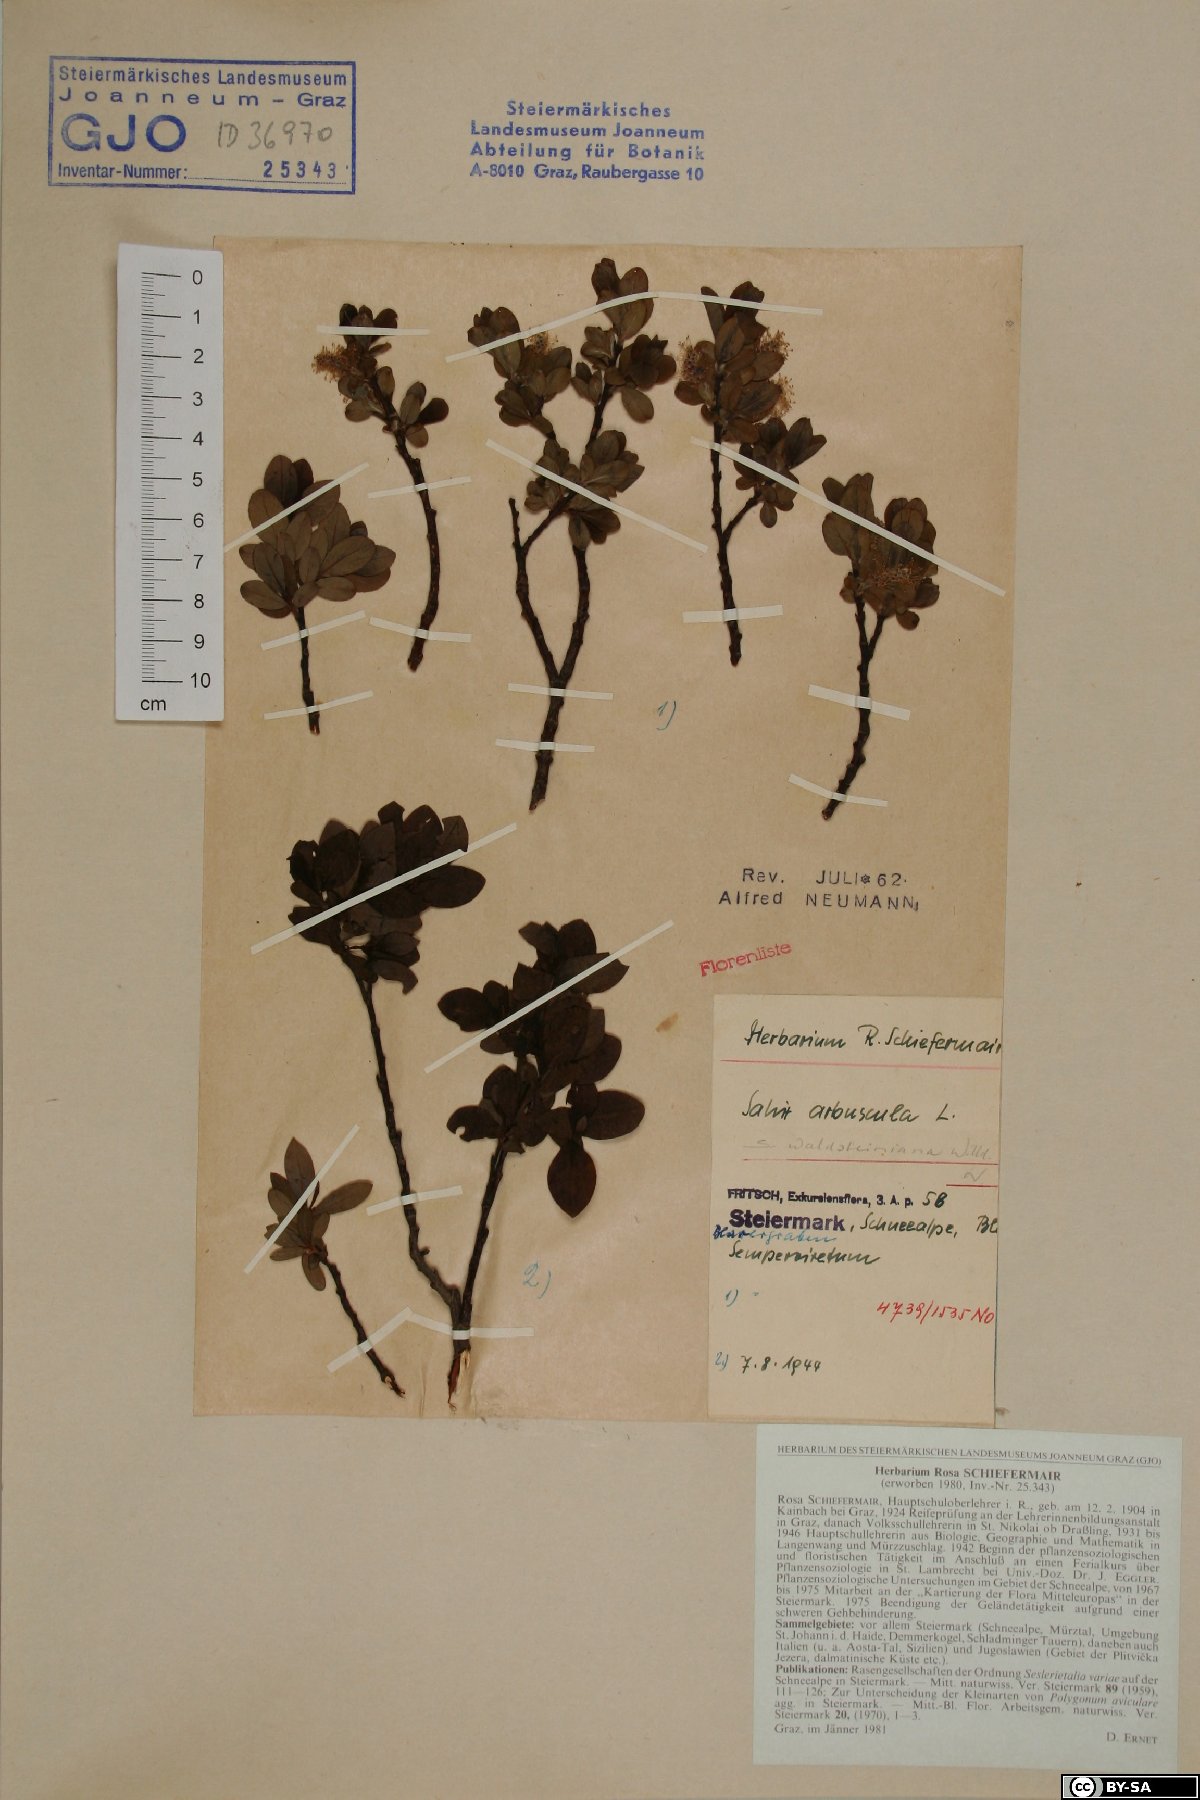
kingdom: Plantae
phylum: Tracheophyta
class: Magnoliopsida
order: Malpighiales
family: Salicaceae
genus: Salix
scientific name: Salix waldsteiniana
